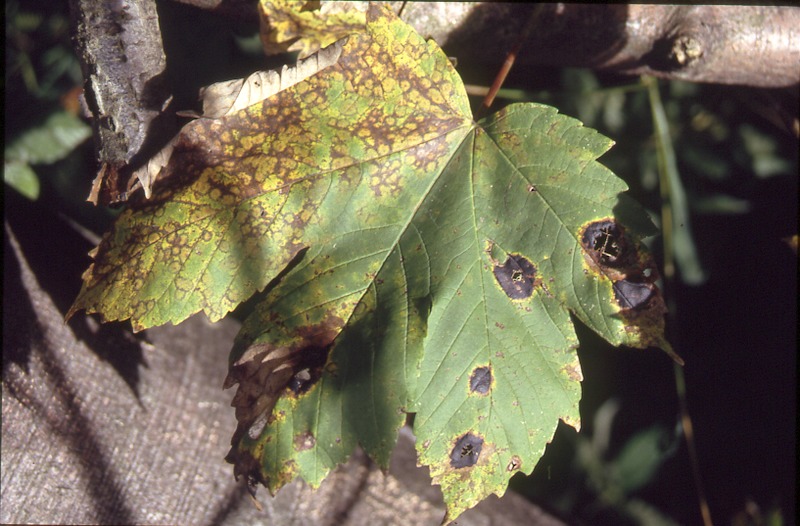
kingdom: Plantae
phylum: Tracheophyta
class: Magnoliopsida
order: Sapindales
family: Sapindaceae
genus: Acer
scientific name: Acer platanoides
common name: Norway maple
